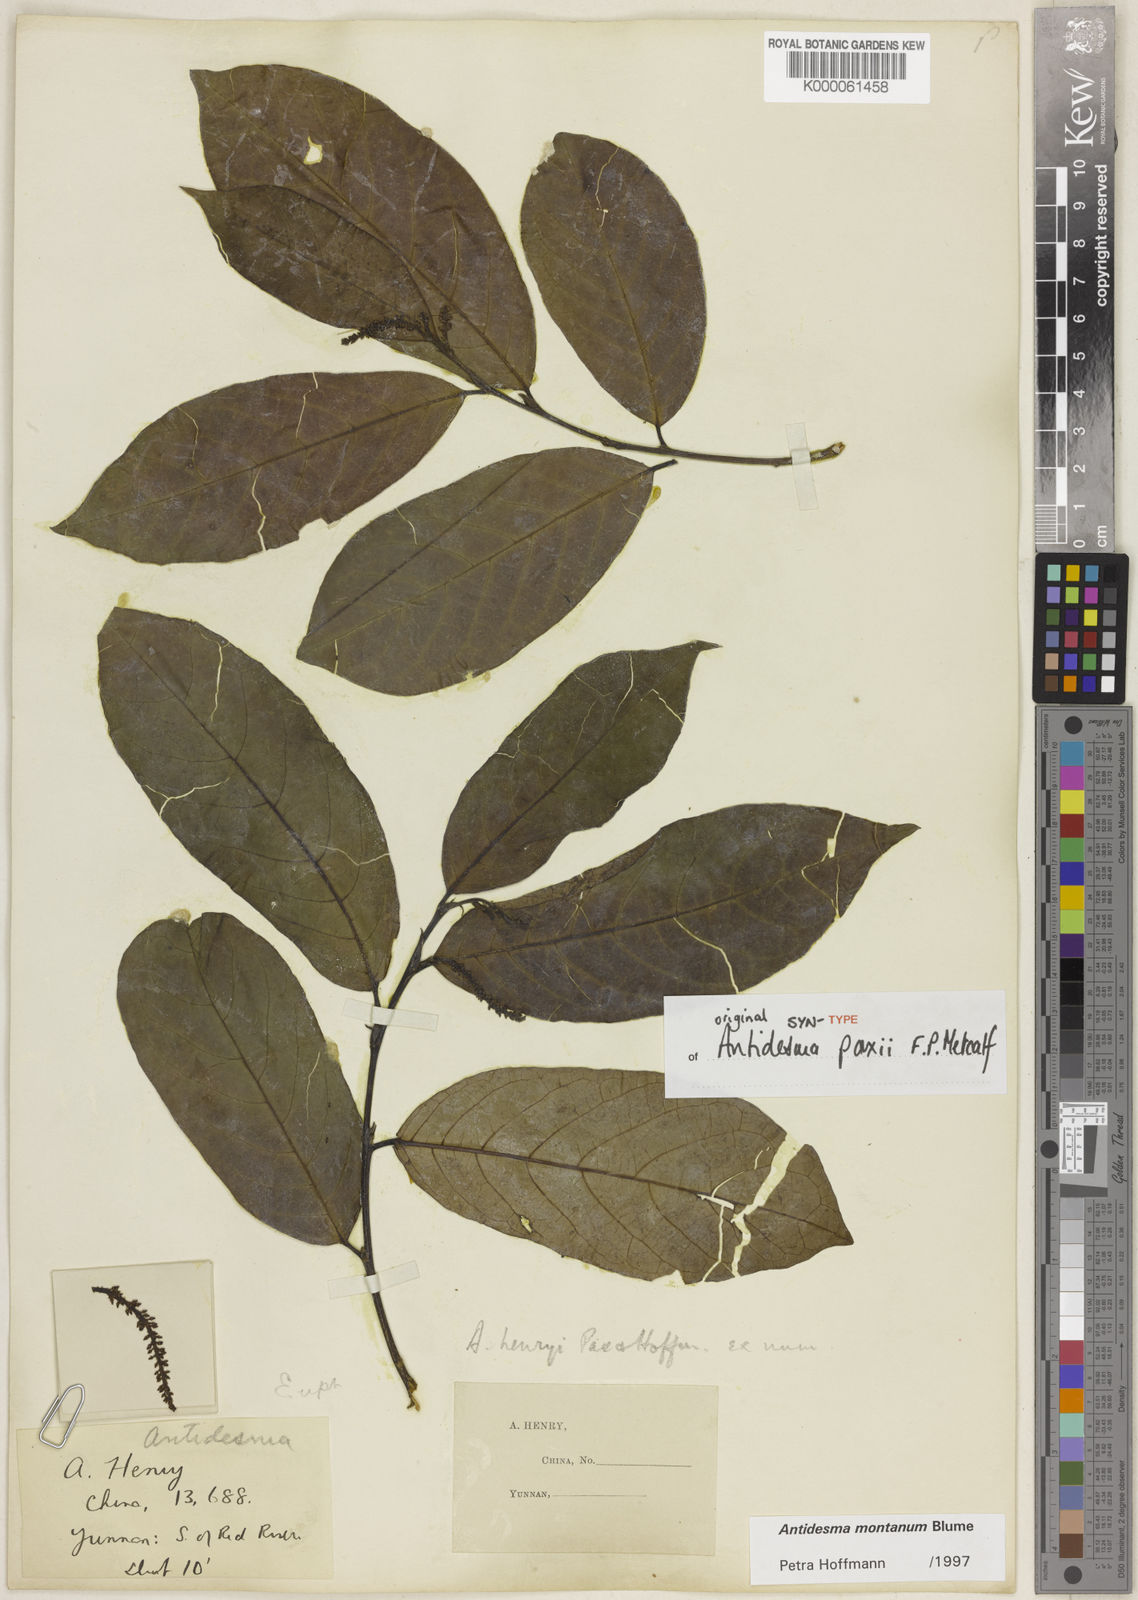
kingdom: Plantae
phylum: Tracheophyta
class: Magnoliopsida
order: Malpighiales
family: Phyllanthaceae
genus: Antidesma
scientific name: Antidesma montanum
